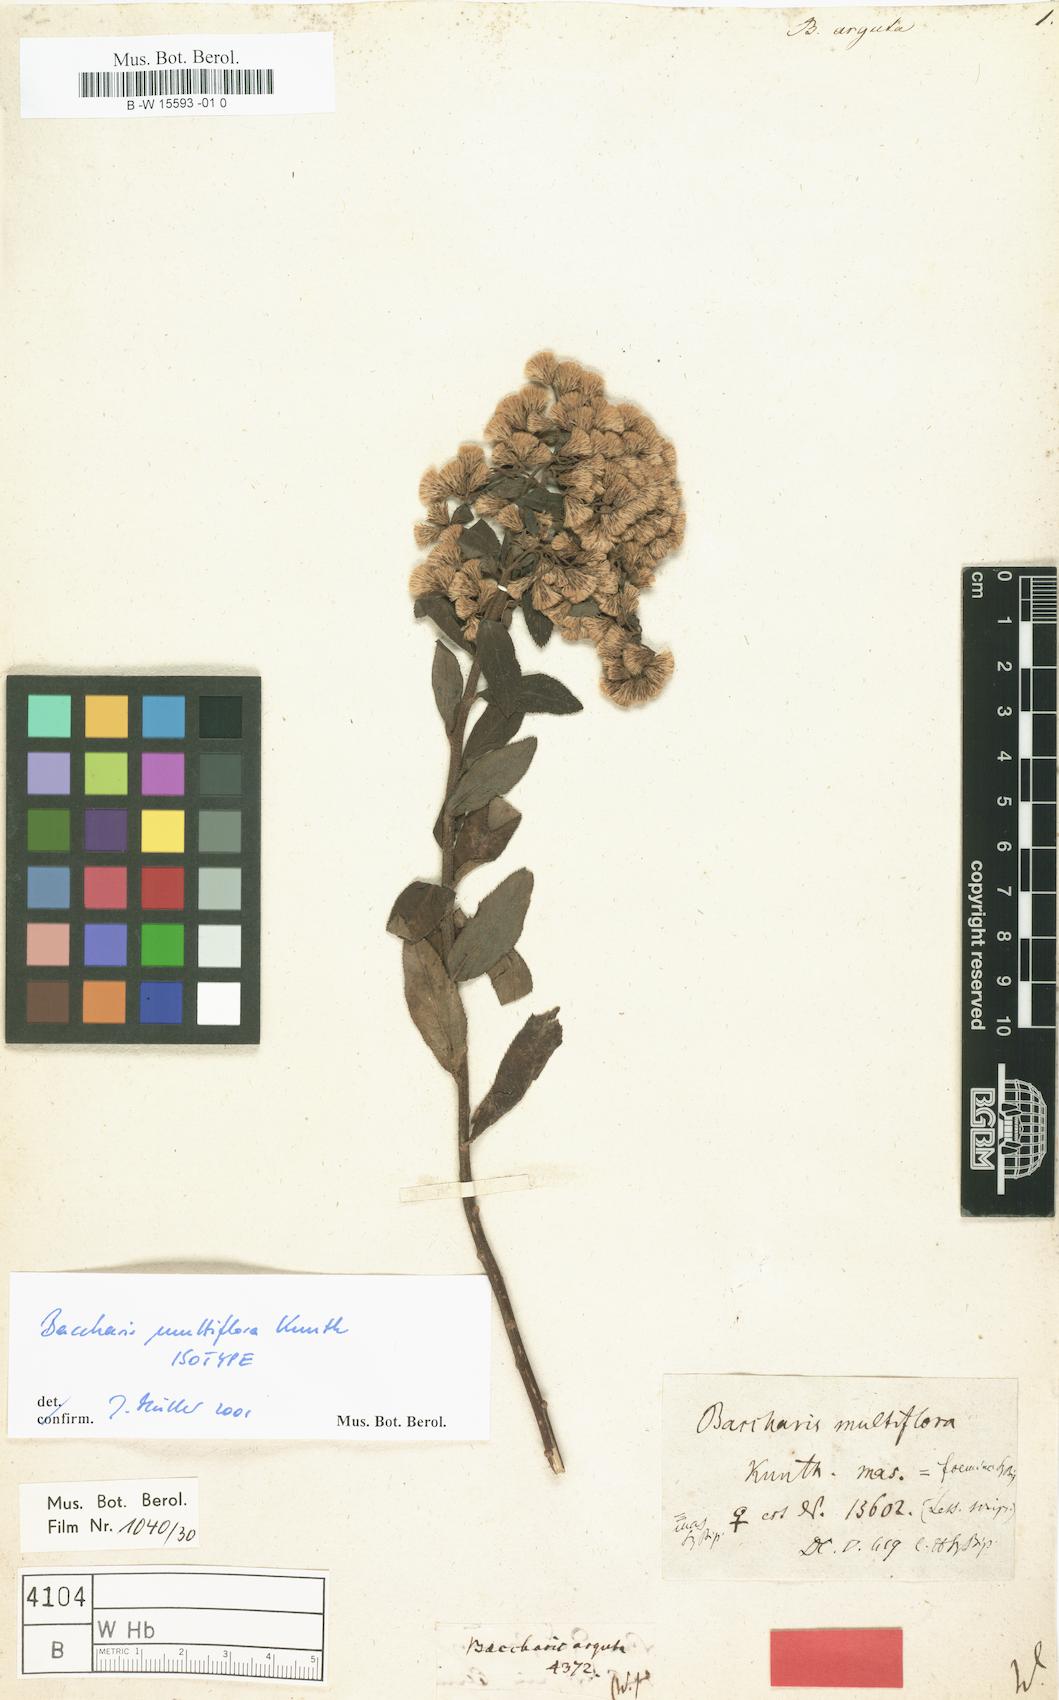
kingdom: Plantae
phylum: Tracheophyta
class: Magnoliopsida
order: Asterales
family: Asteraceae
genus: Baccharis
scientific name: Baccharis racemosa
